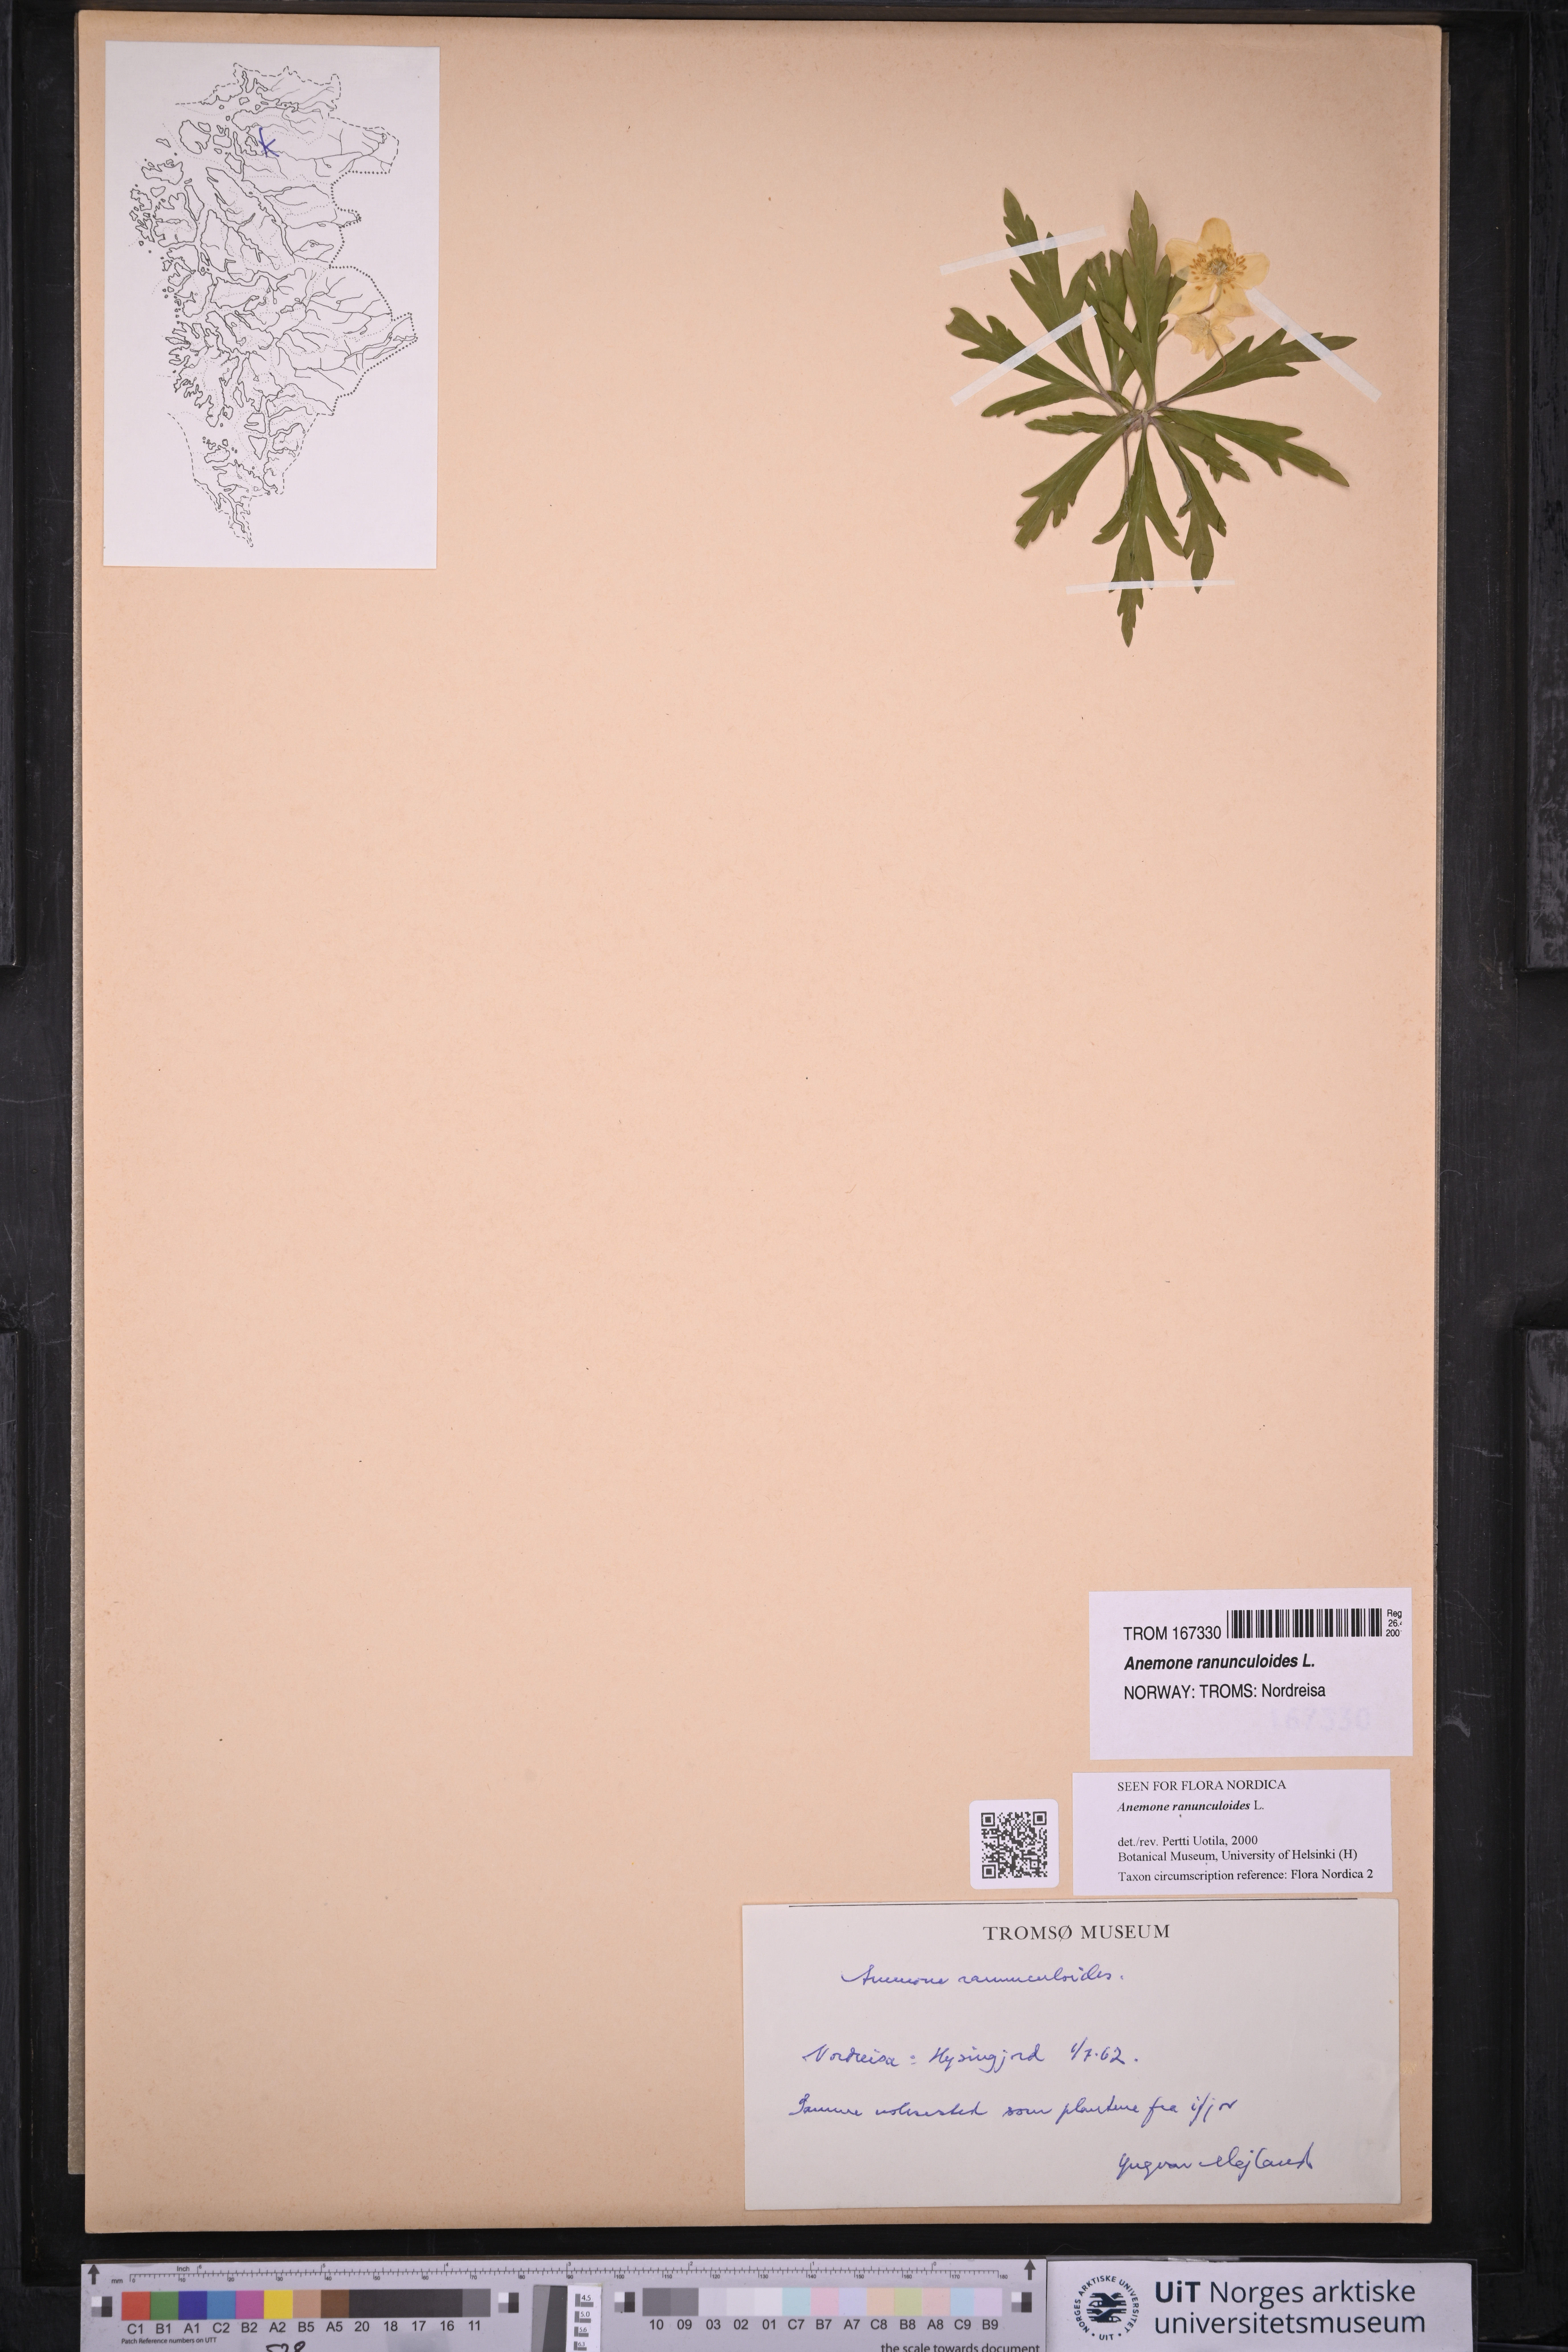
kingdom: Plantae
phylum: Tracheophyta
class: Magnoliopsida
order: Ranunculales
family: Ranunculaceae
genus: Anemone
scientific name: Anemone ranunculoides
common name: Yellow anemone
